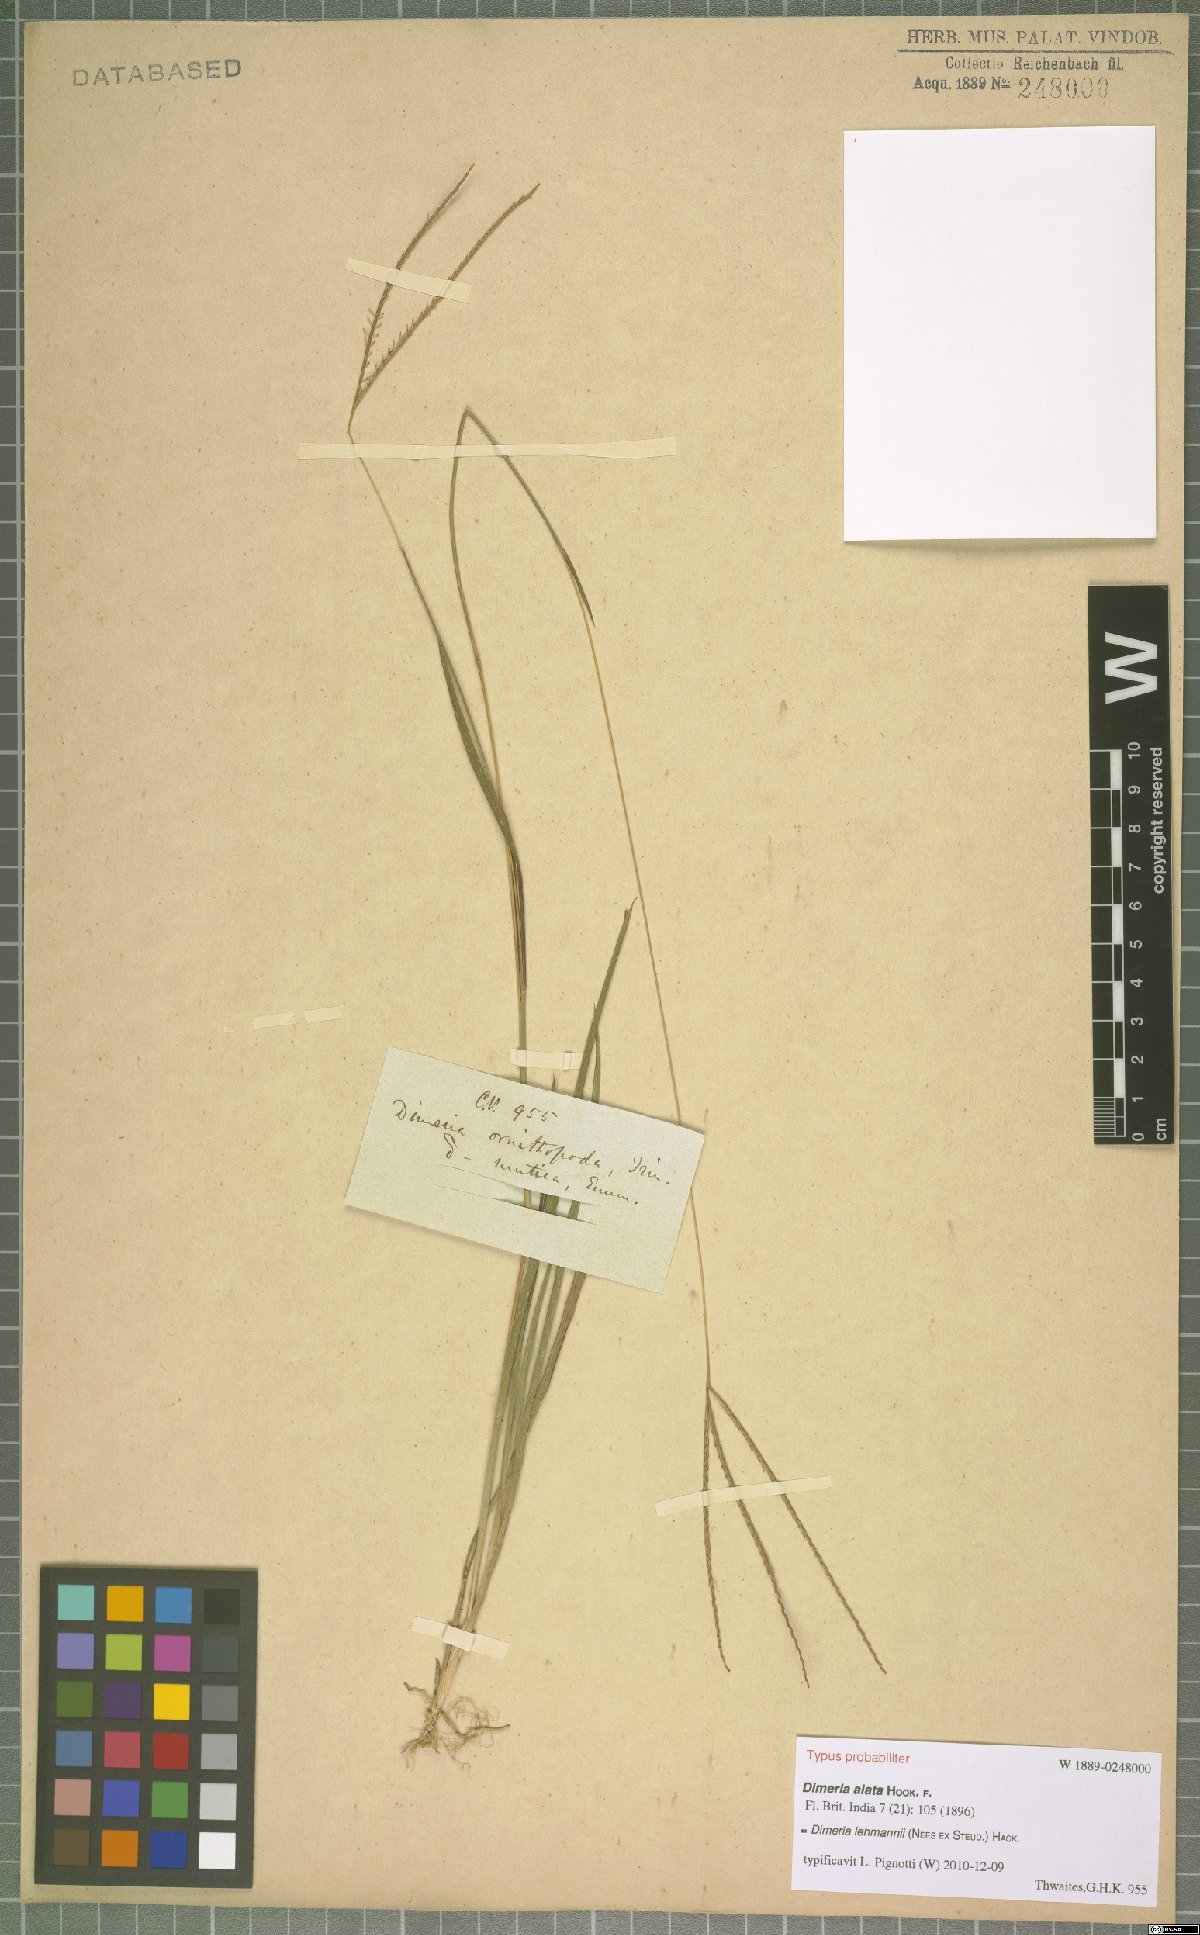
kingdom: Plantae
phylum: Tracheophyta
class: Liliopsida
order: Poales
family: Poaceae
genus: Dimeria
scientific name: Dimeria lehmannii
